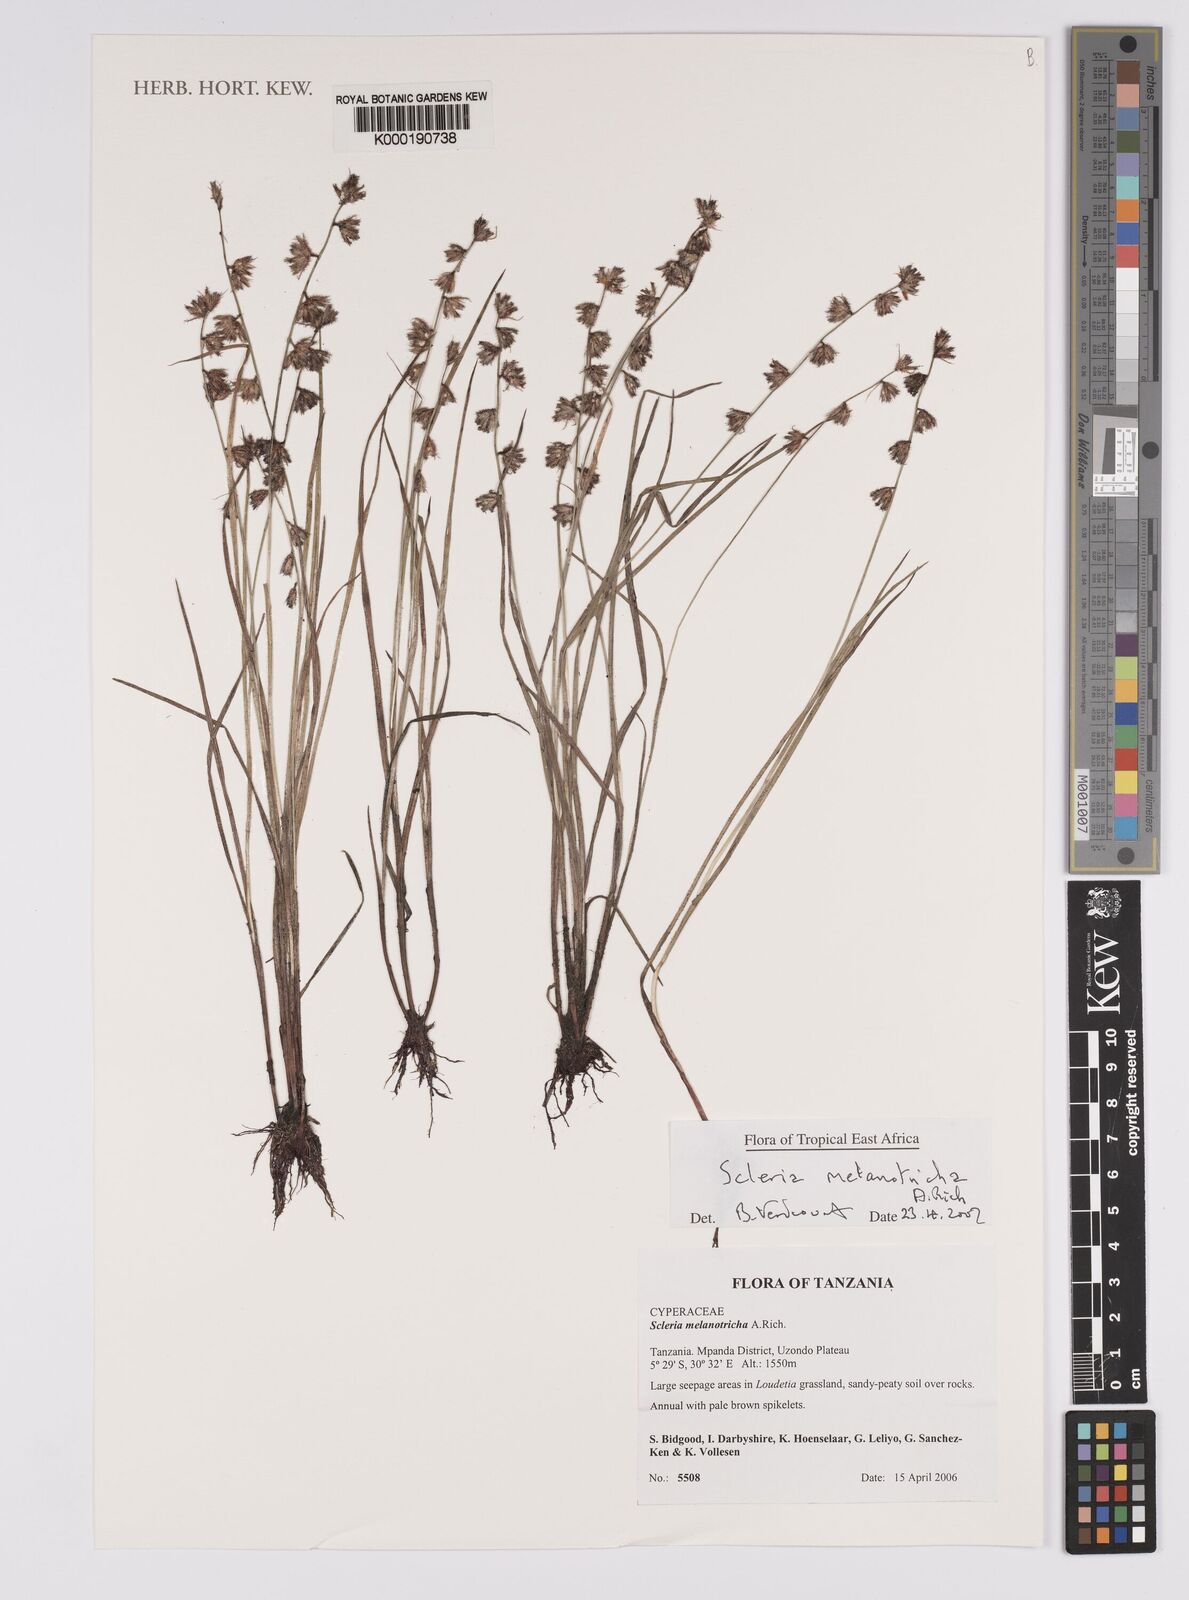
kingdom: Plantae
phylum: Tracheophyta
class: Liliopsida
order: Poales
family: Cyperaceae
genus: Scleria
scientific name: Scleria melanotricha
